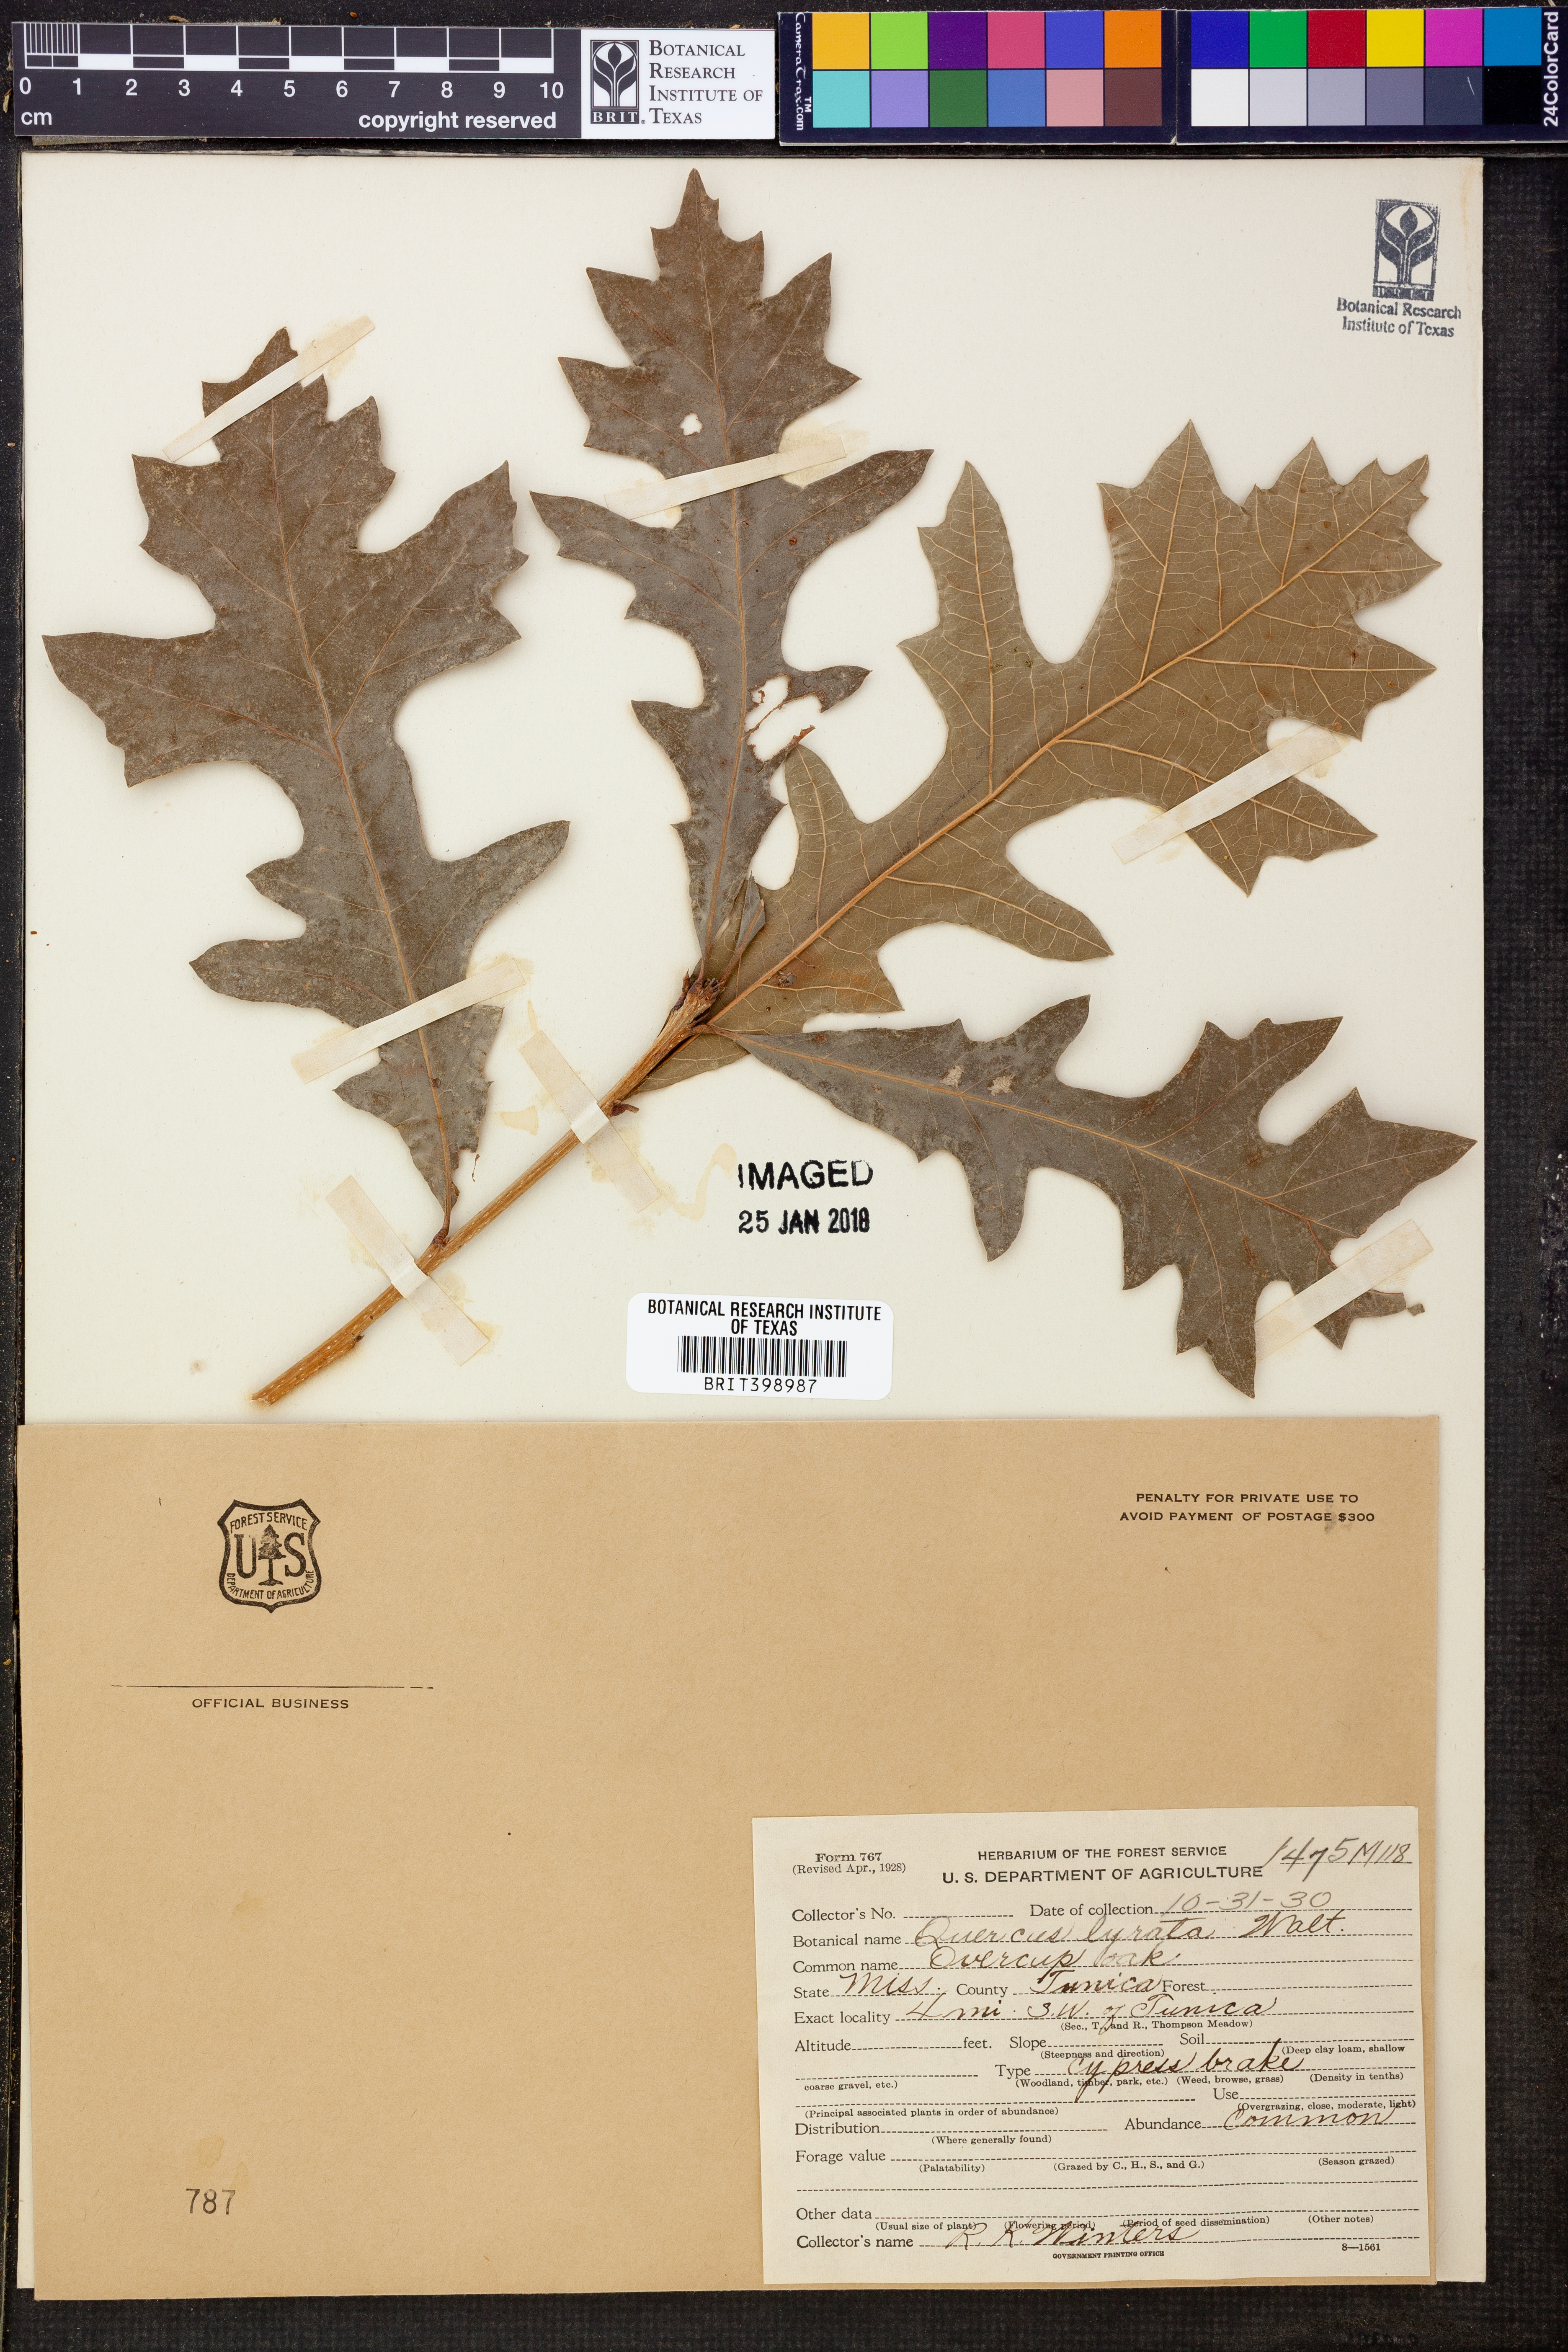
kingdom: Plantae
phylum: Tracheophyta
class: Magnoliopsida
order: Fagales
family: Fagaceae
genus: Quercus
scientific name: Quercus lyrata
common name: Overcup oak
